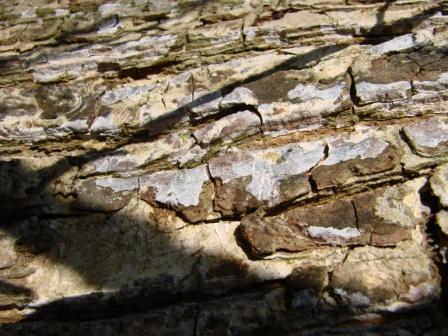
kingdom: Fungi
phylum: Basidiomycota
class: Agaricomycetes
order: Agaricales
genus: Dendrothele
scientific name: Dendrothele acerina
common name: navr-kalkplet
